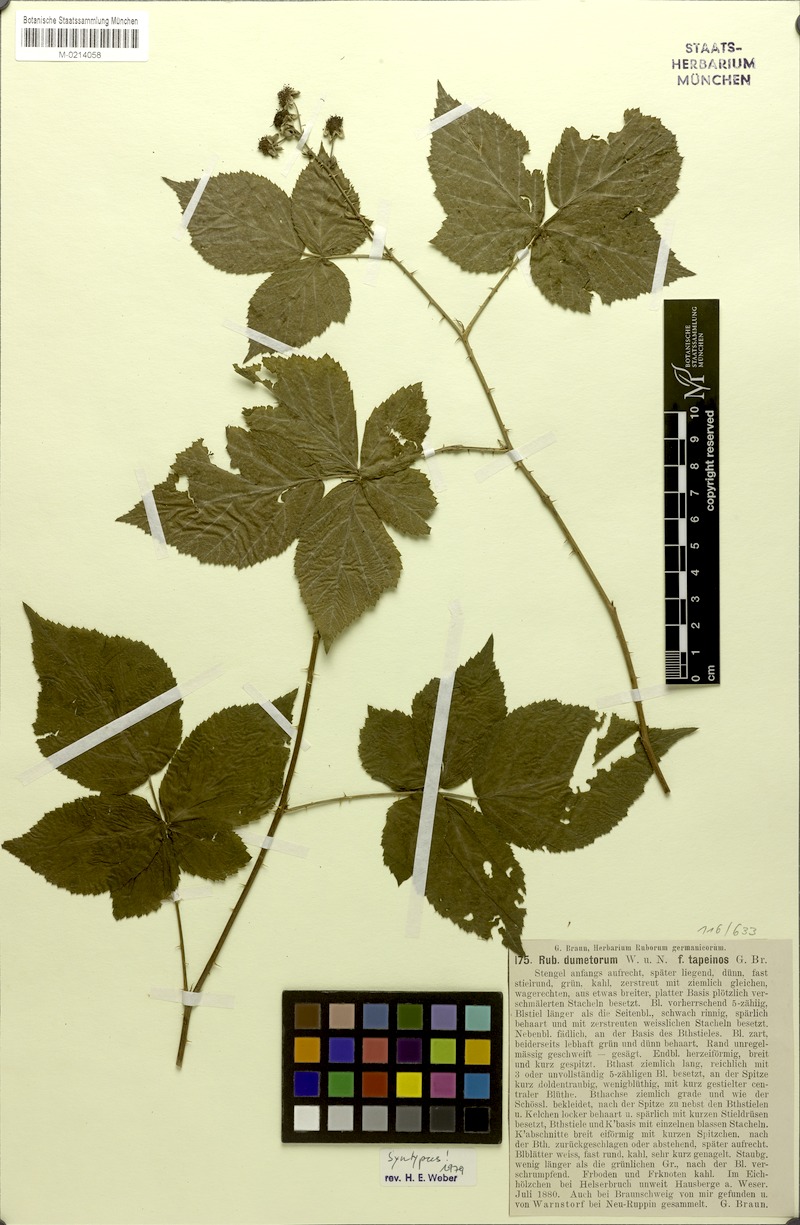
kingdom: Plantae
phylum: Tracheophyta
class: Magnoliopsida
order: Rosales
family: Rosaceae
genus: Rubus
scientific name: Rubus
